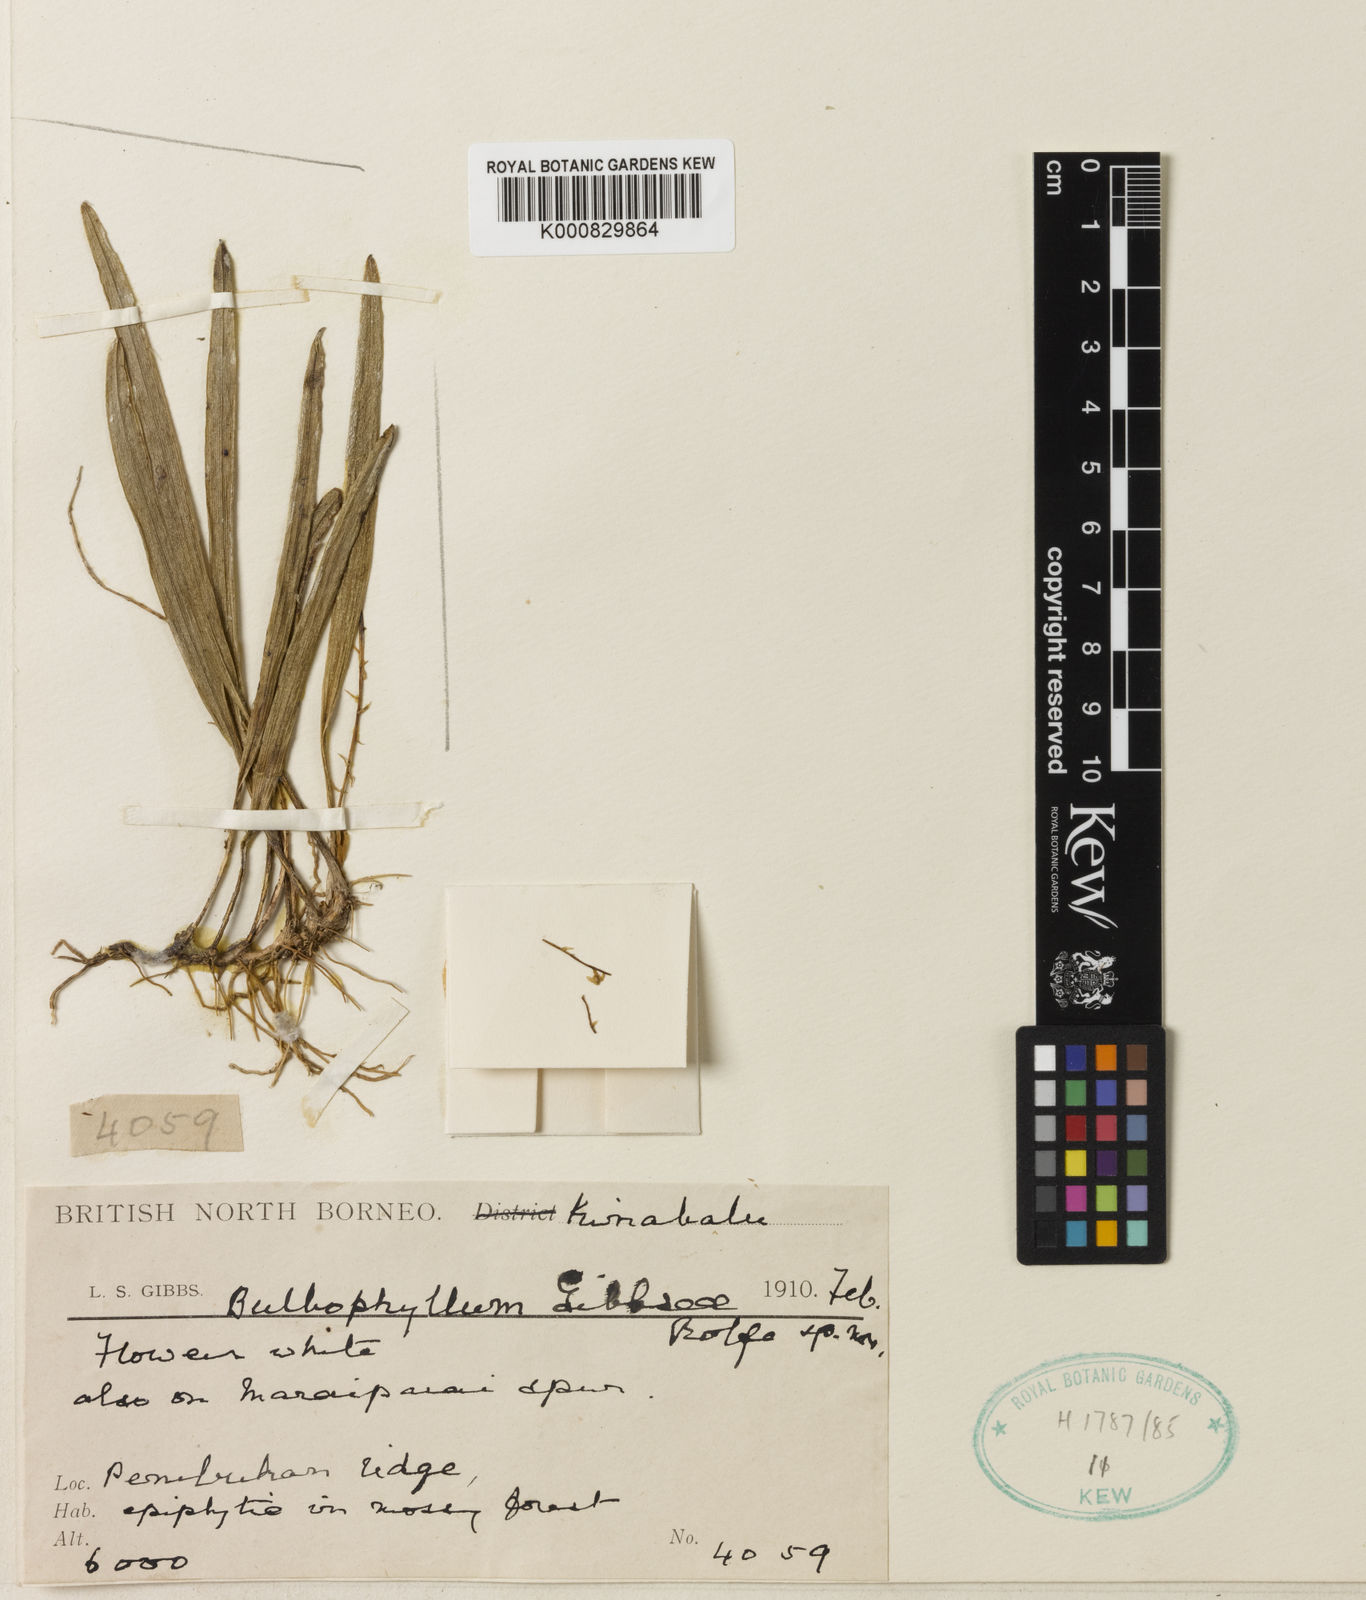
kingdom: Plantae
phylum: Tracheophyta
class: Liliopsida
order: Asparagales
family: Orchidaceae
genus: Bulbophyllum
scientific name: Bulbophyllum unguiculatum
